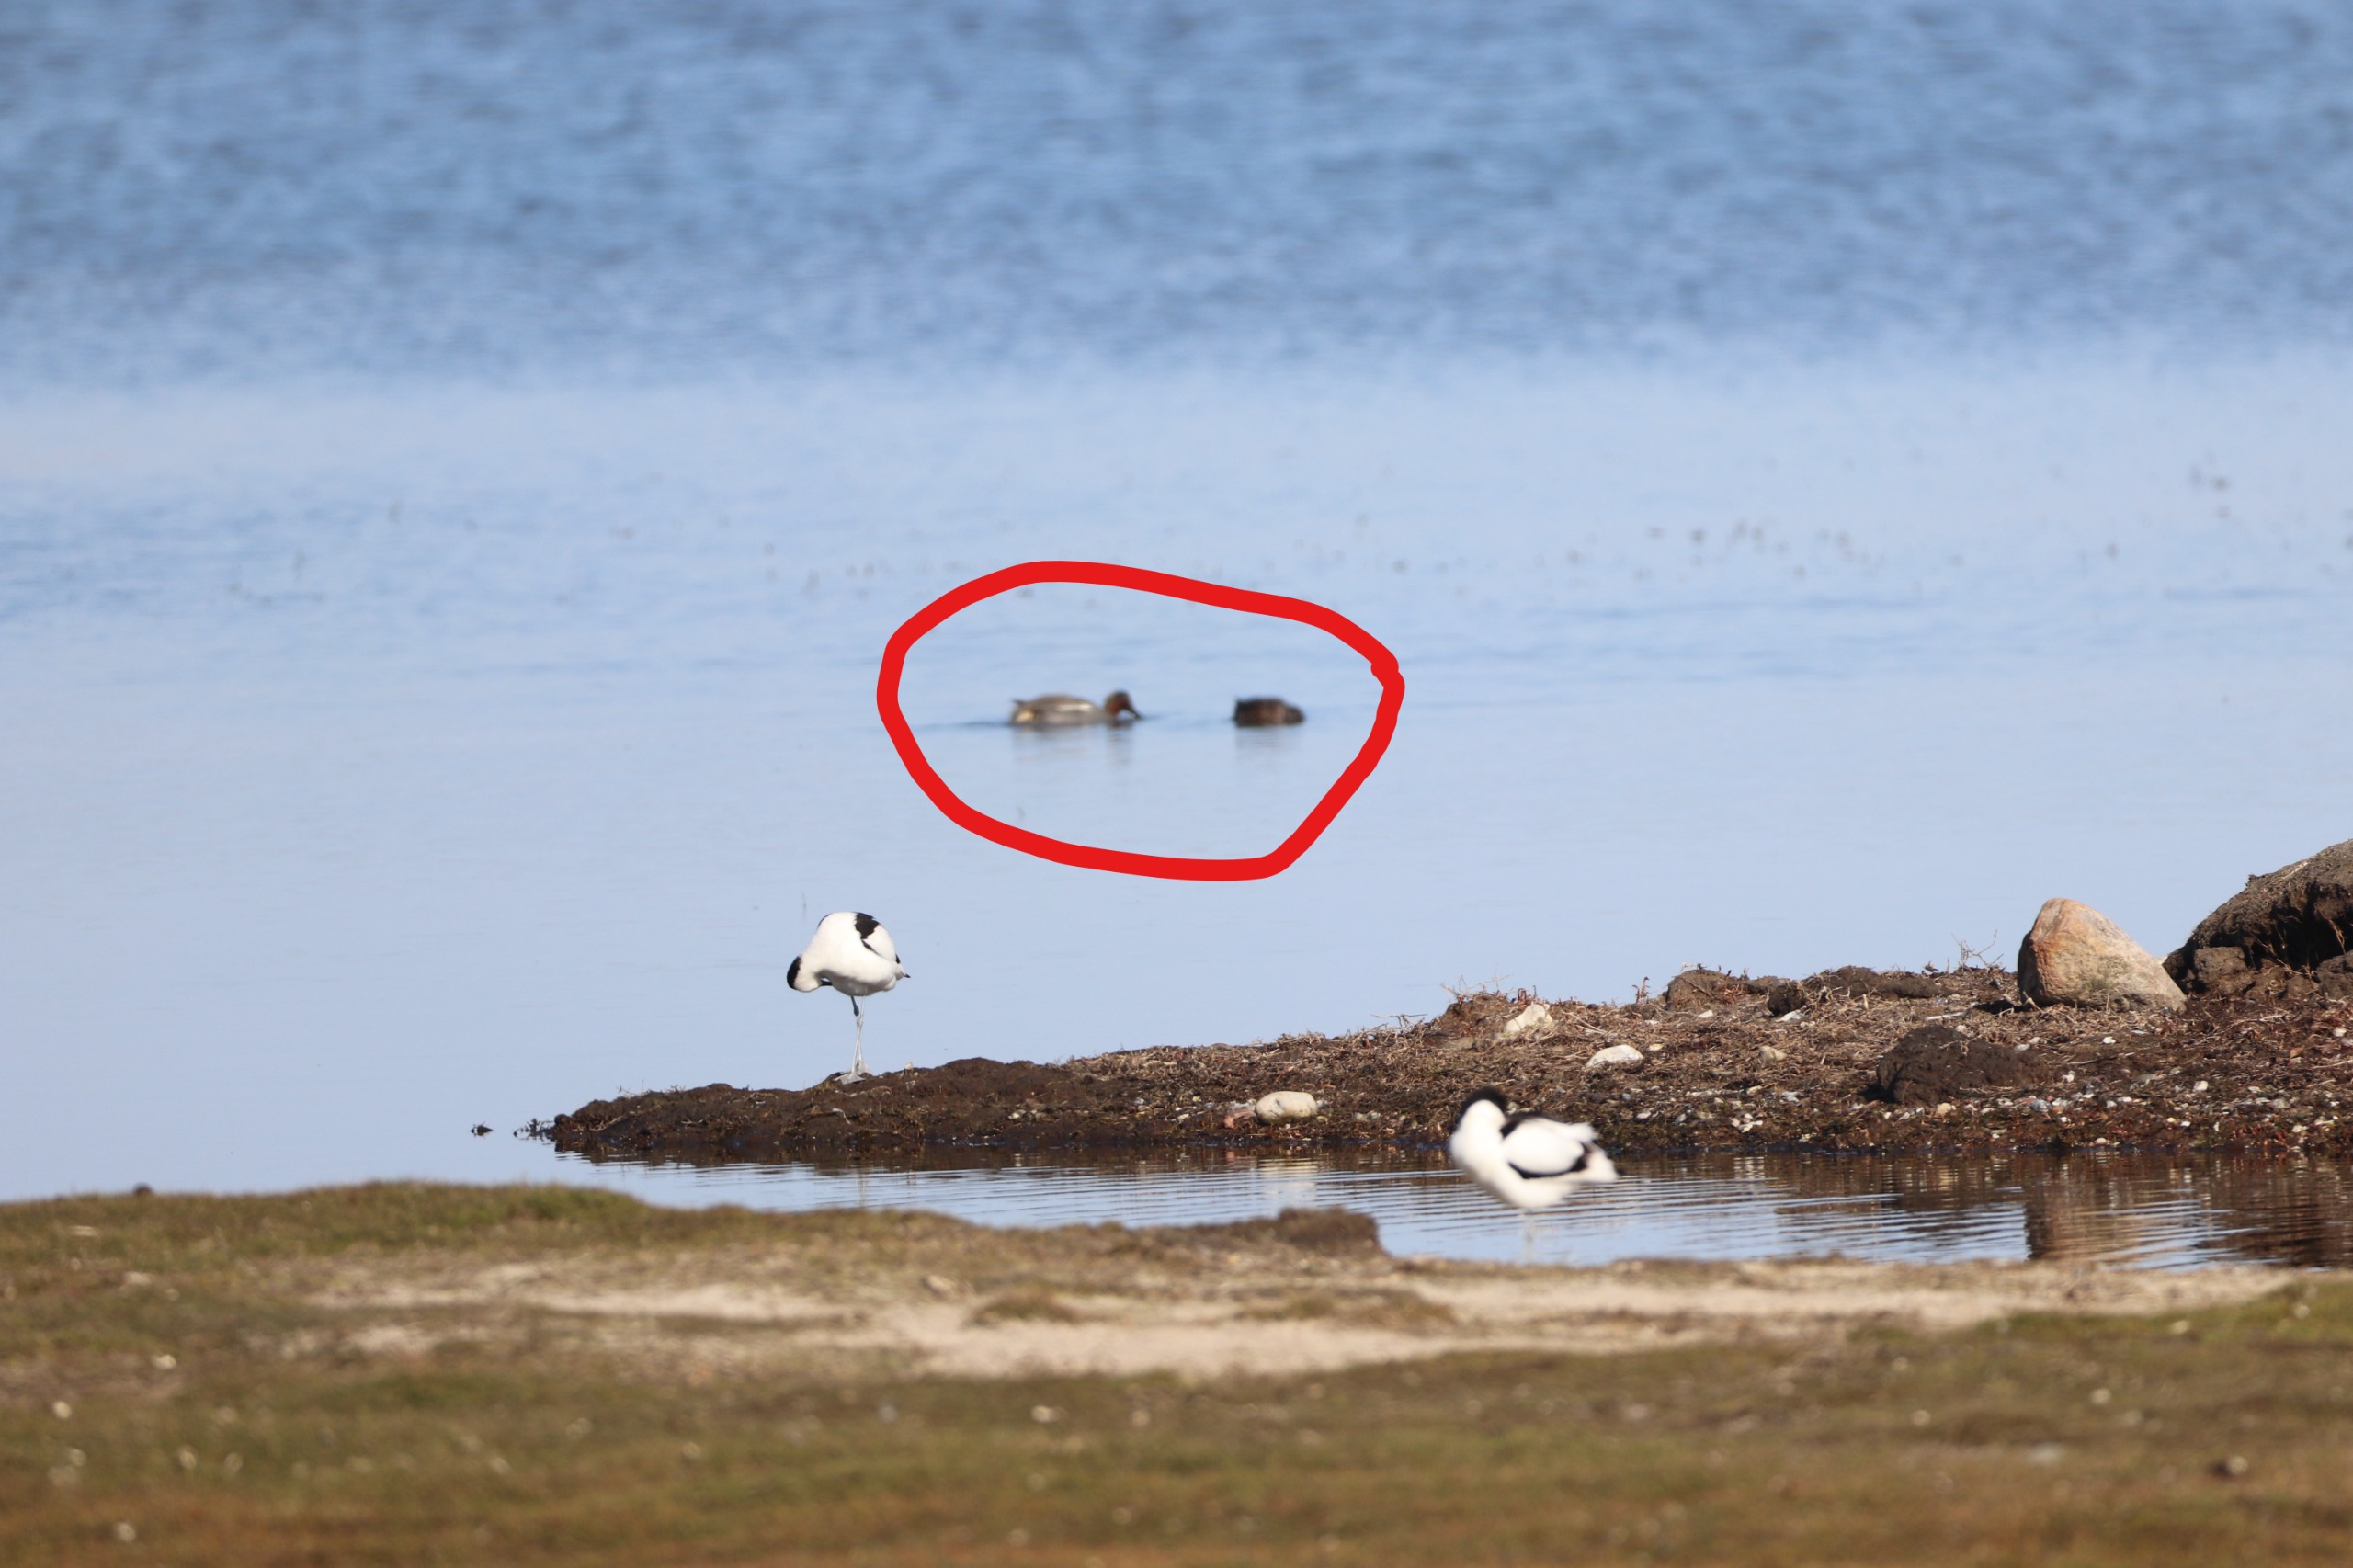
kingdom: Animalia
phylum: Chordata
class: Aves
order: Anseriformes
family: Anatidae
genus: Anas
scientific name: Anas crecca
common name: Krikand
